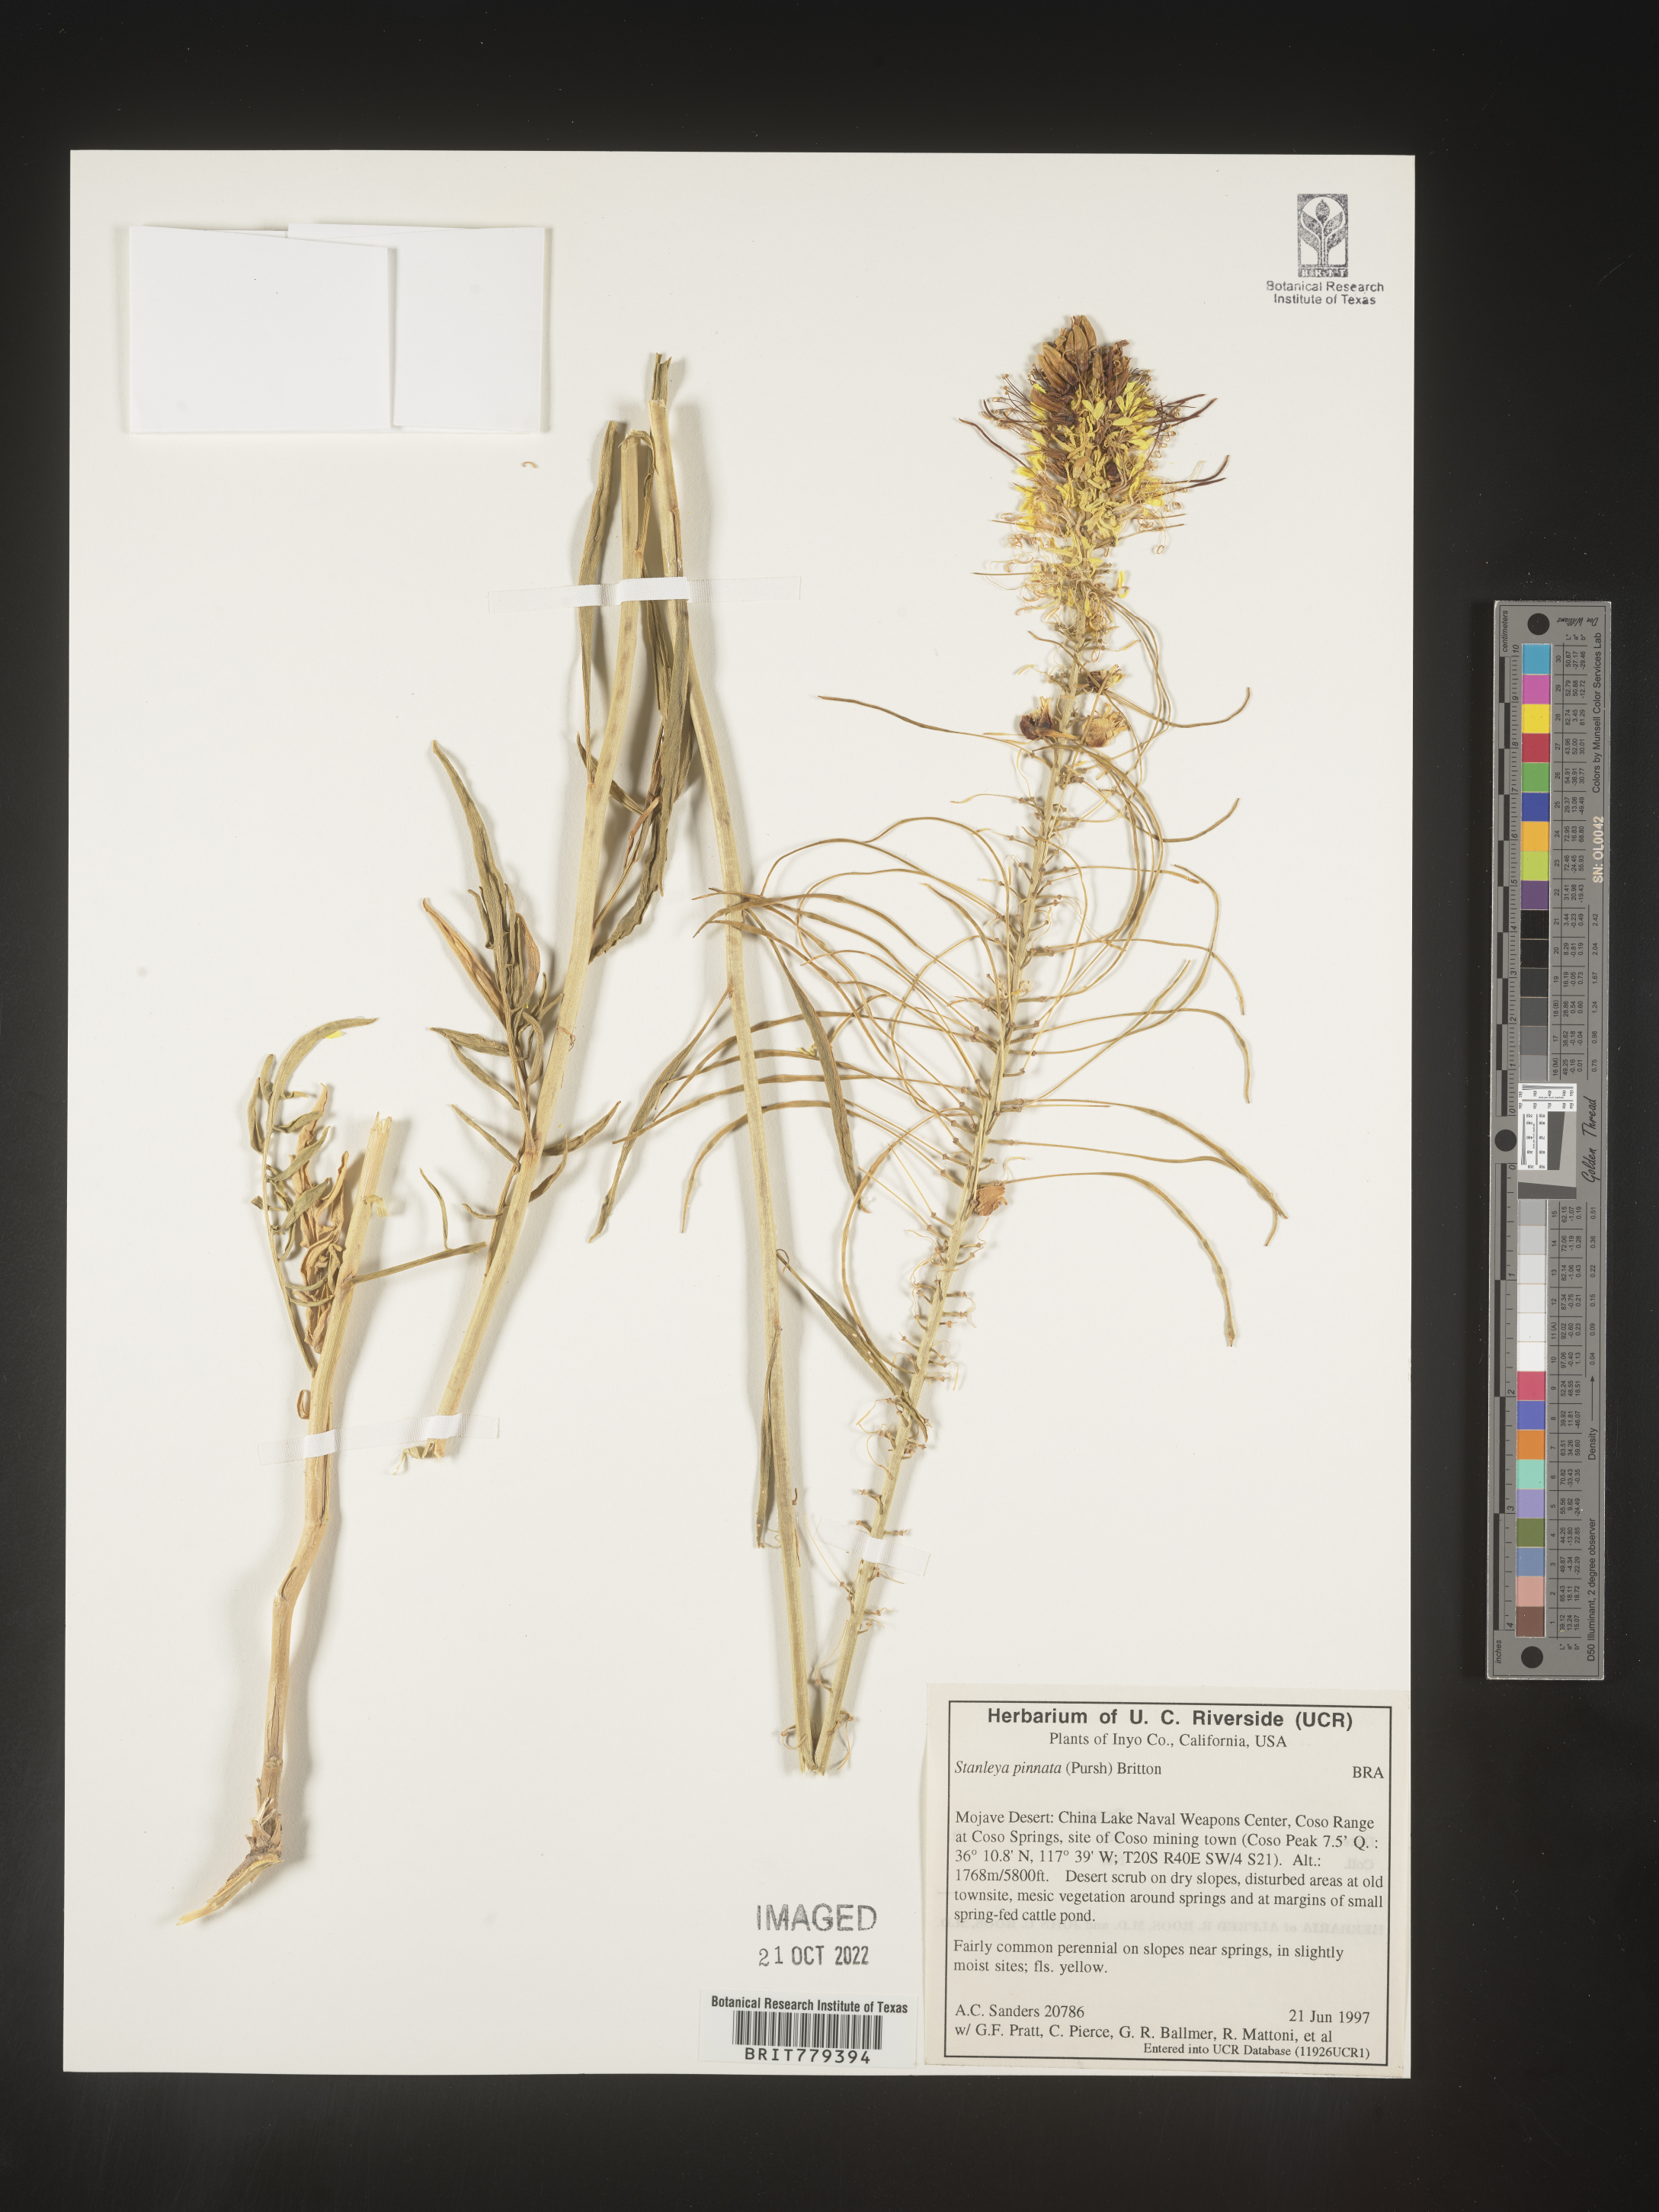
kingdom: Plantae
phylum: Tracheophyta
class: Magnoliopsida
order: Brassicales
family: Brassicaceae
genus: Stanleya
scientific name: Stanleya pinnata
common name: Prince's-plume
